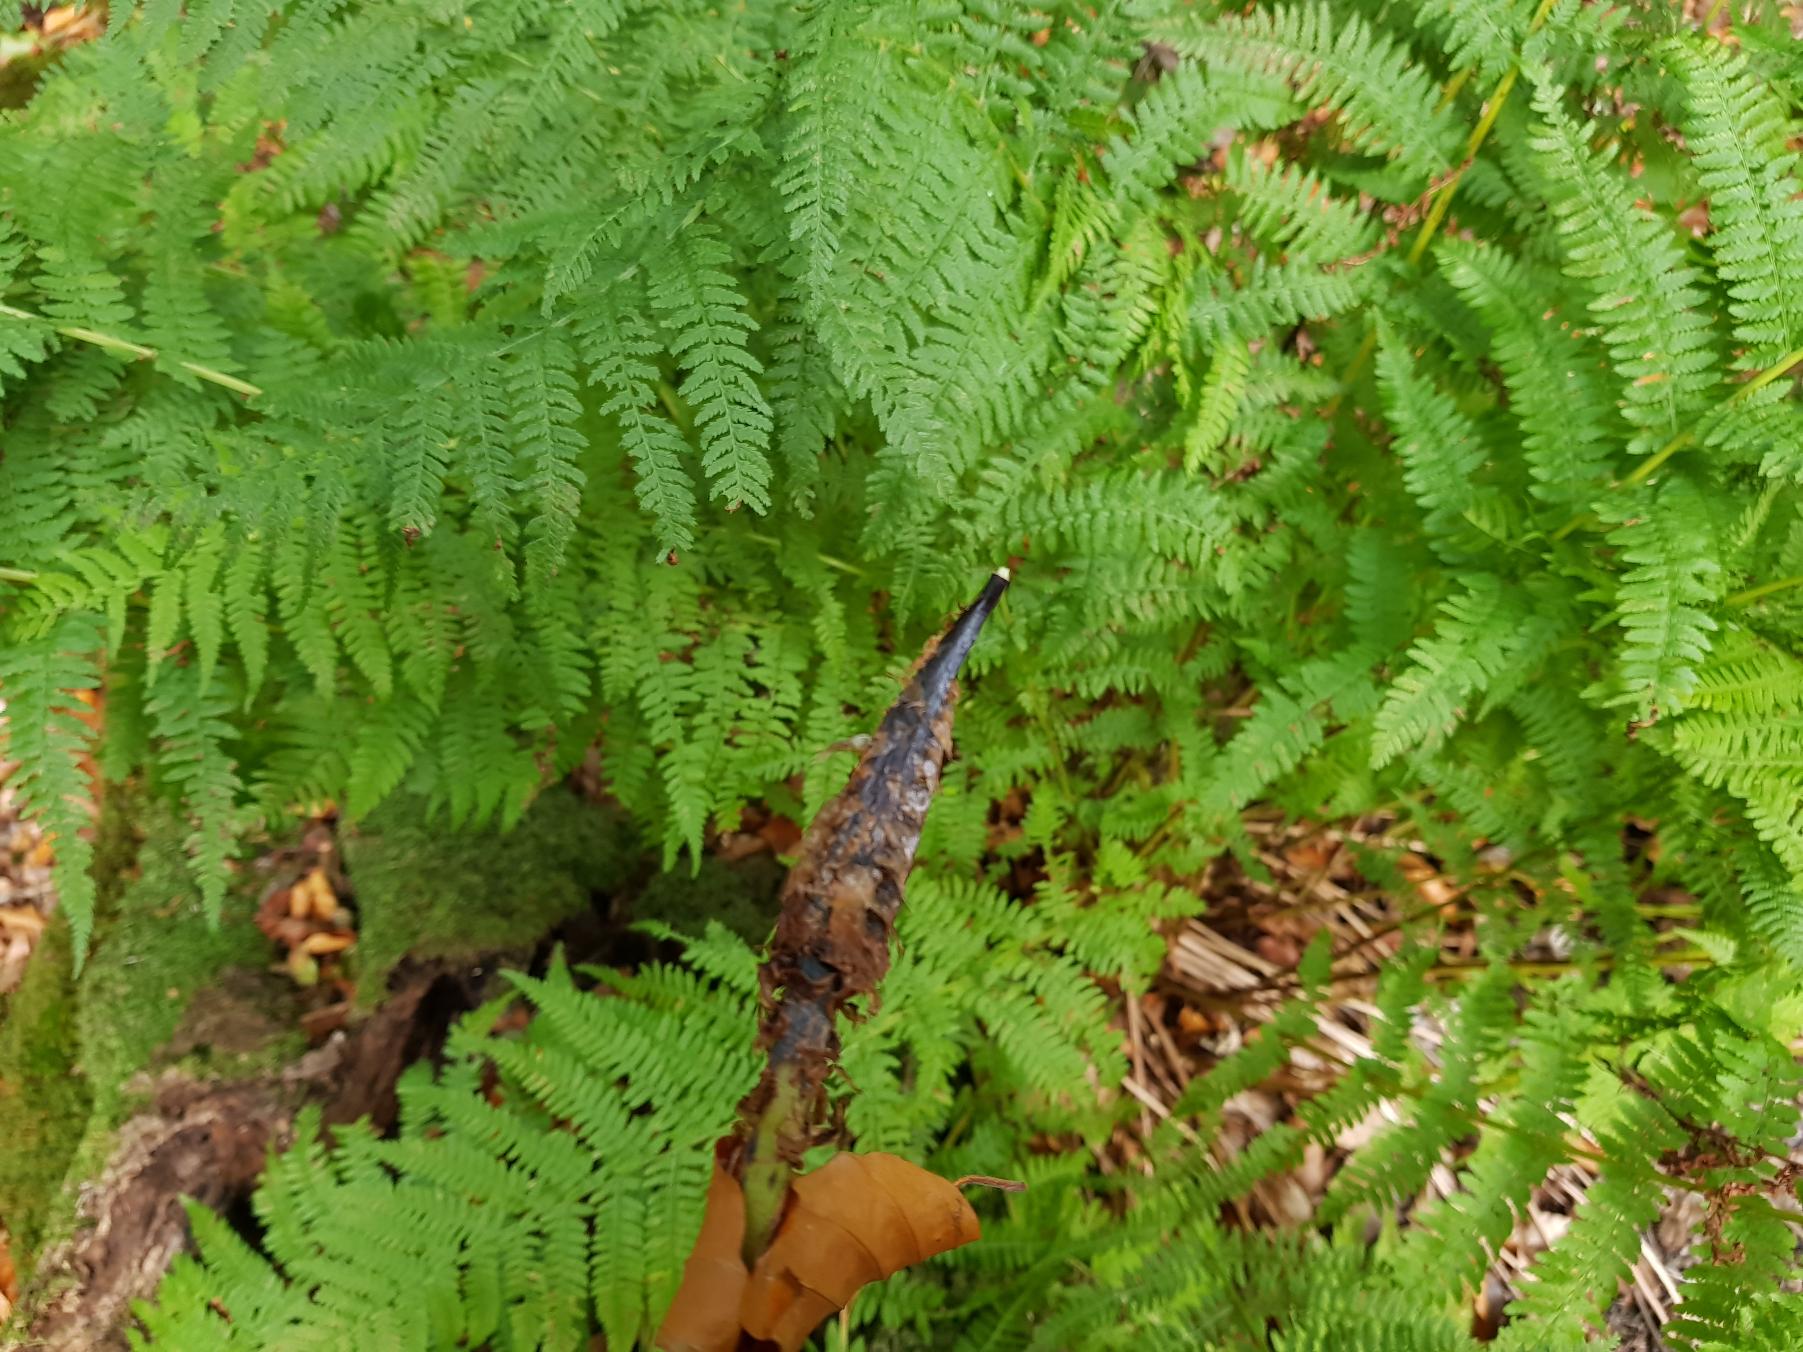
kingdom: Plantae
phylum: Tracheophyta
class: Polypodiopsida
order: Polypodiales
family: Athyriaceae
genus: Athyrium
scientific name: Athyrium filix-femina
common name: Fjerbregne
